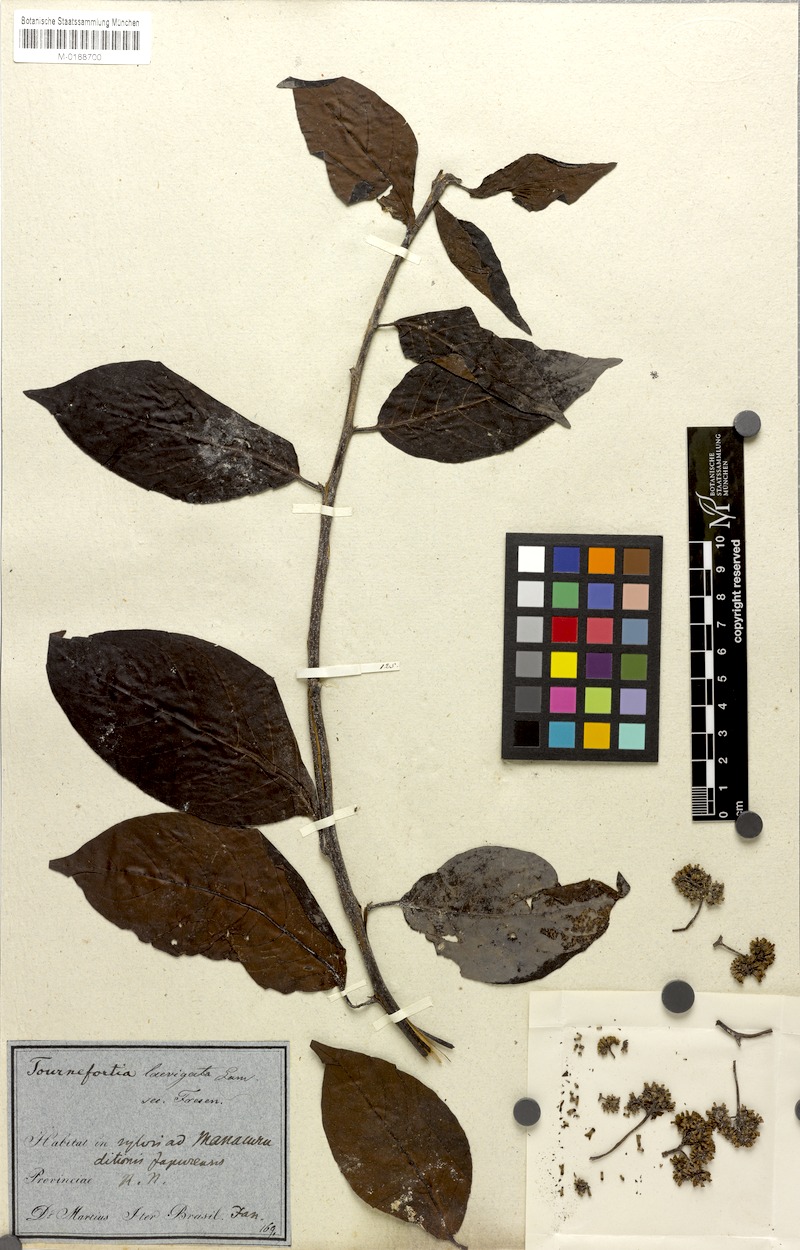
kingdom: Plantae
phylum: Tracheophyta
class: Magnoliopsida
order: Boraginales
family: Heliotropiaceae
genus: Heliotropium
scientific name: Heliotropium verdcourtii
